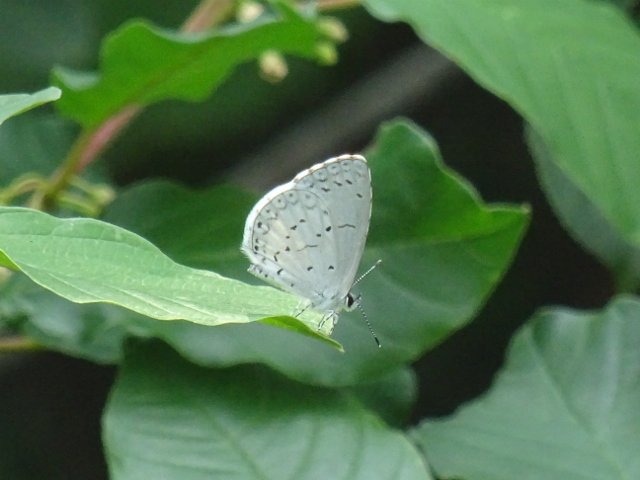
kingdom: Animalia
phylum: Arthropoda
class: Insecta
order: Lepidoptera
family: Lycaenidae
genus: Celastrina
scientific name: Celastrina
